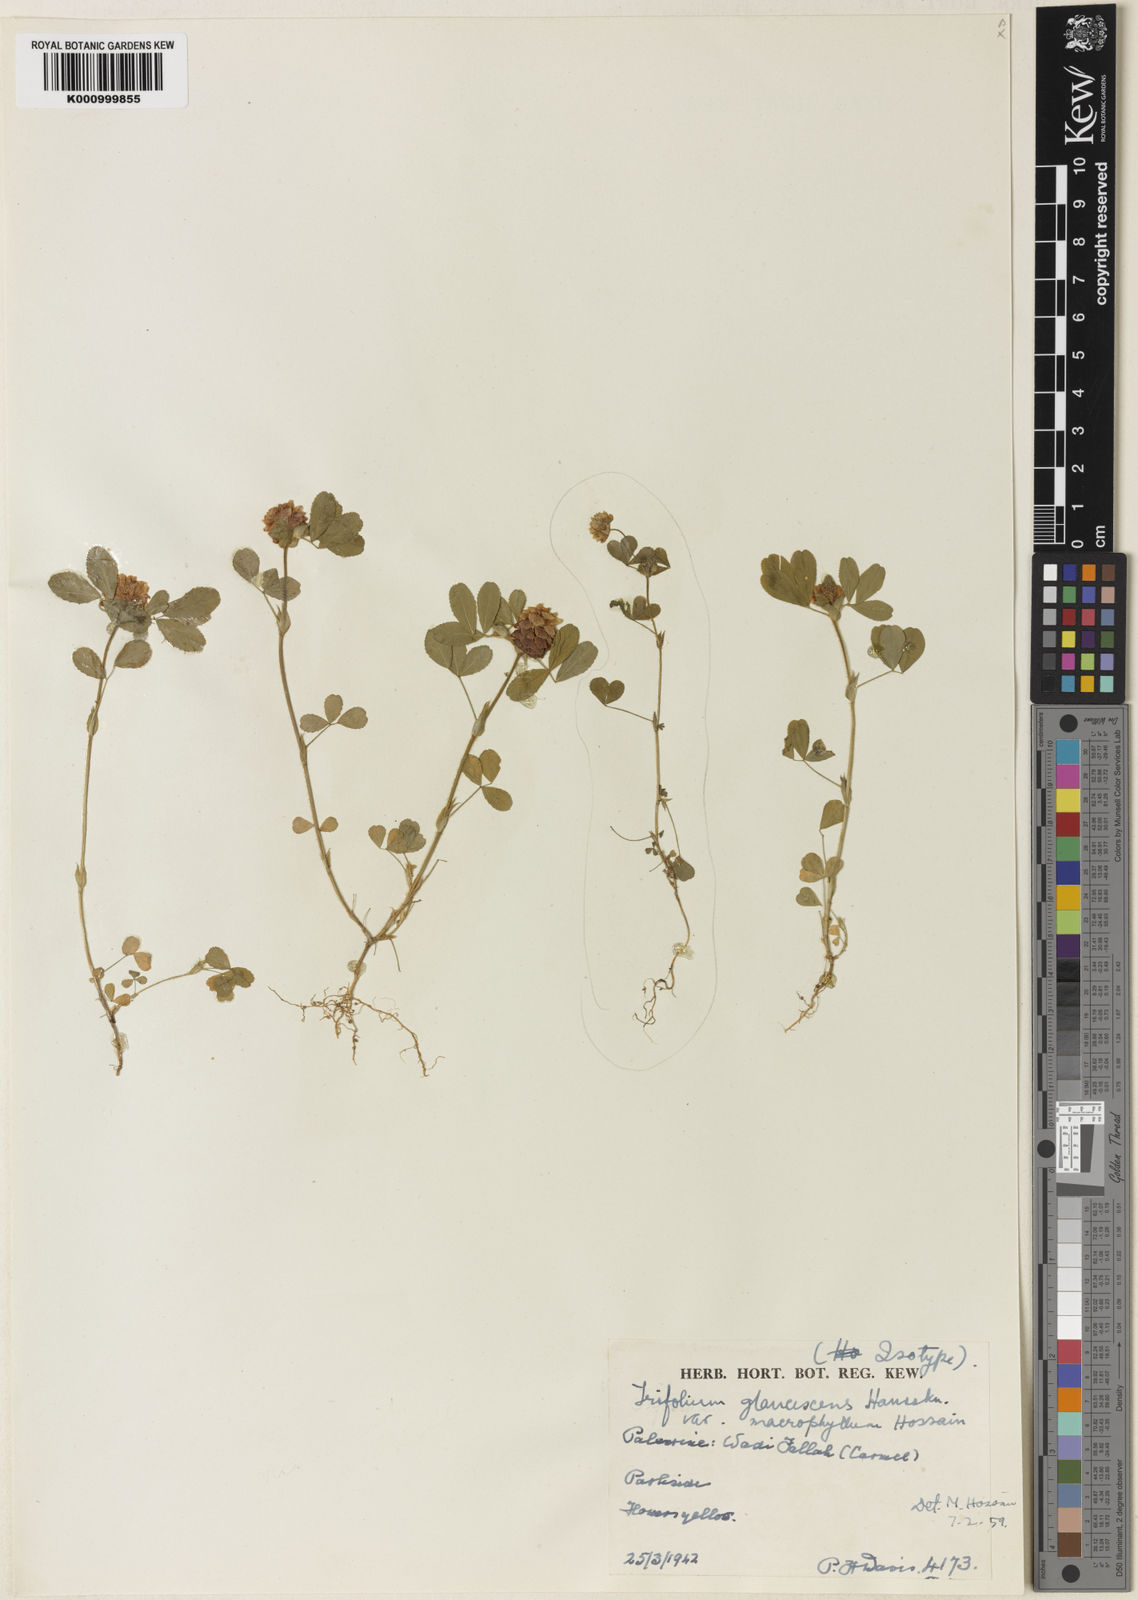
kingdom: Plantae
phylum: Tracheophyta
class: Magnoliopsida
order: Fabales
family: Fabaceae
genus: Trifolium
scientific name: Trifolium campestre
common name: Field clover
